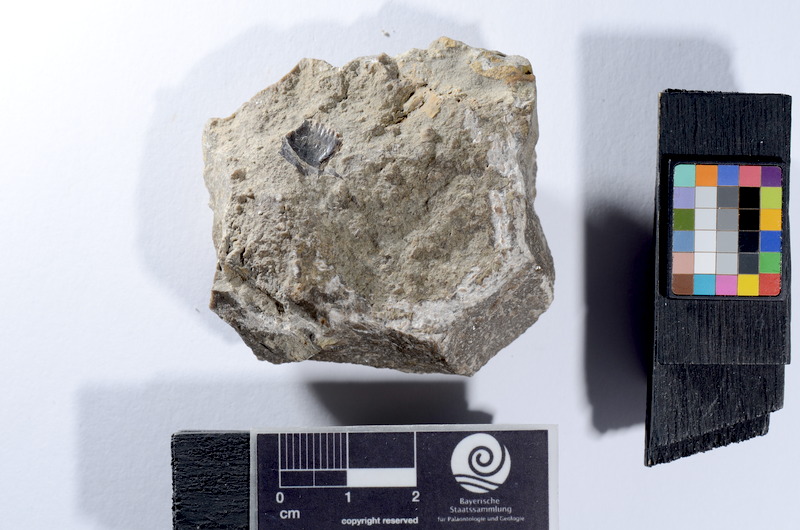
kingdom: Animalia
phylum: Chordata
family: Palaeoniscidae
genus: Gyrolepis
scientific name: Gyrolepis albertii
